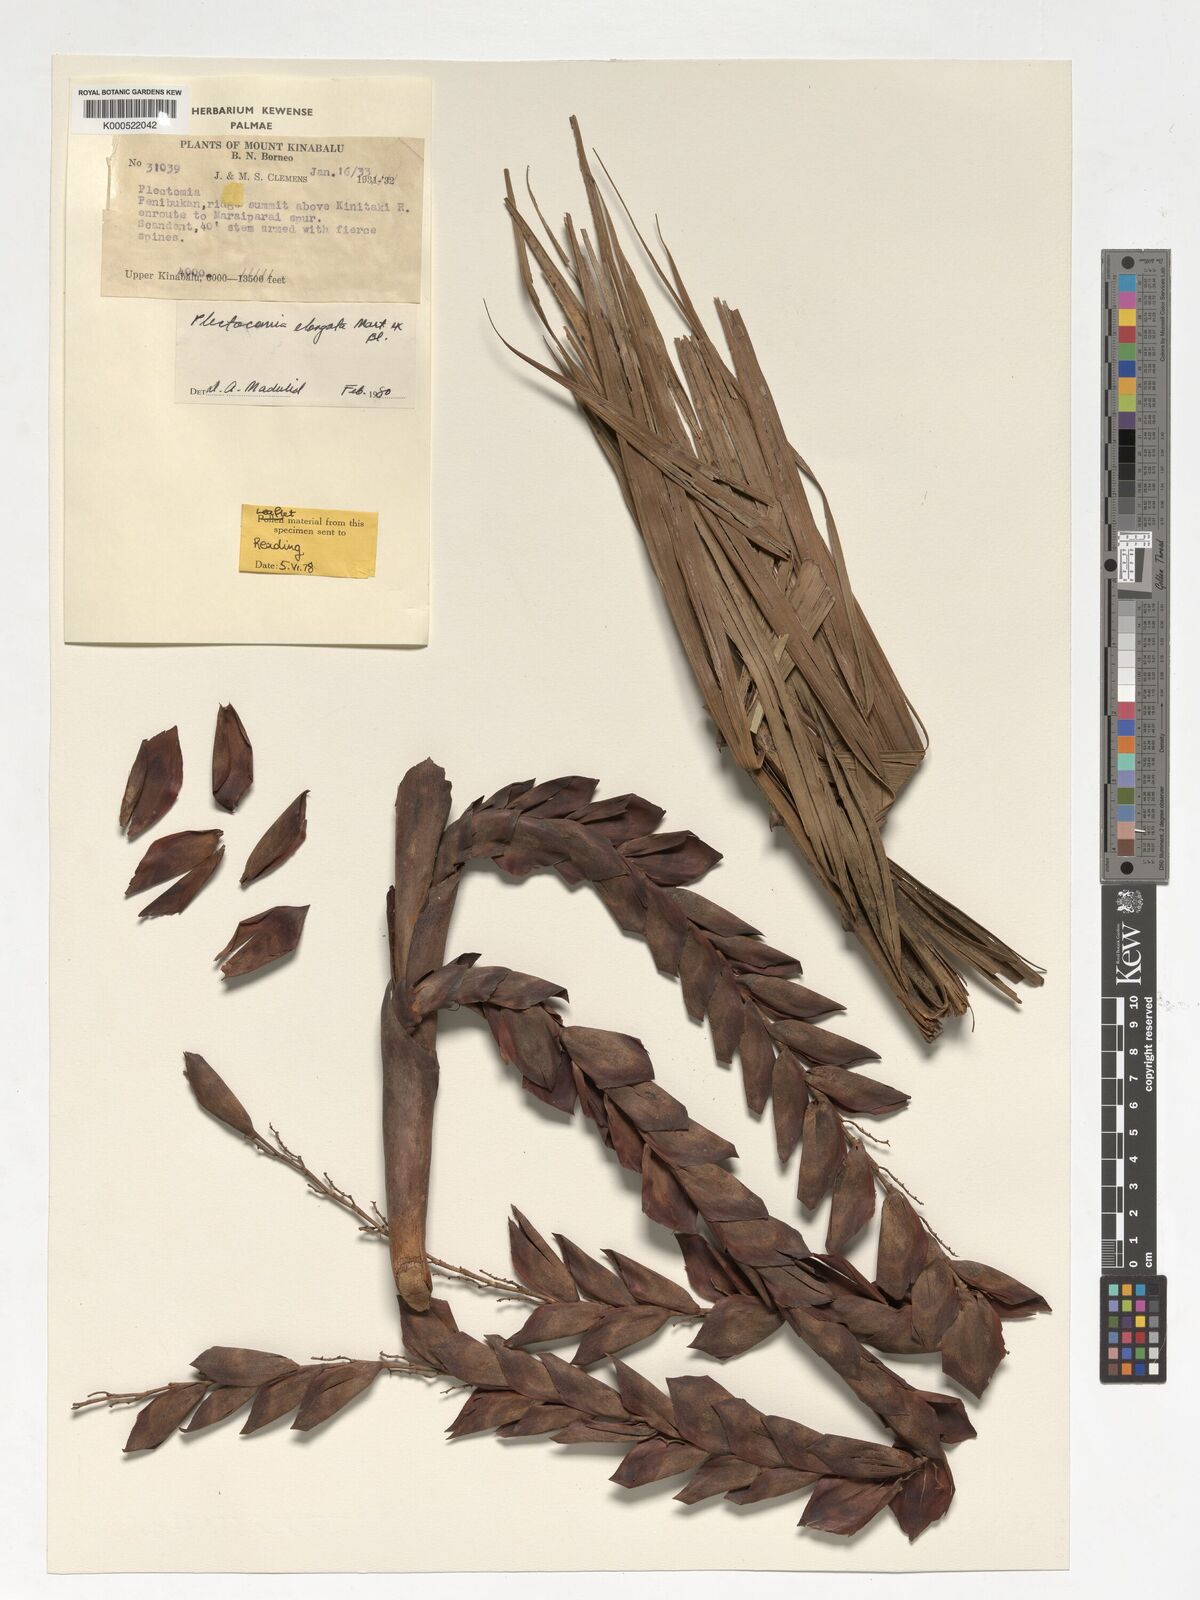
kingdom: Plantae
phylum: Tracheophyta
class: Liliopsida
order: Arecales
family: Arecaceae
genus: Plectocomia
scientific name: Plectocomia elongata
